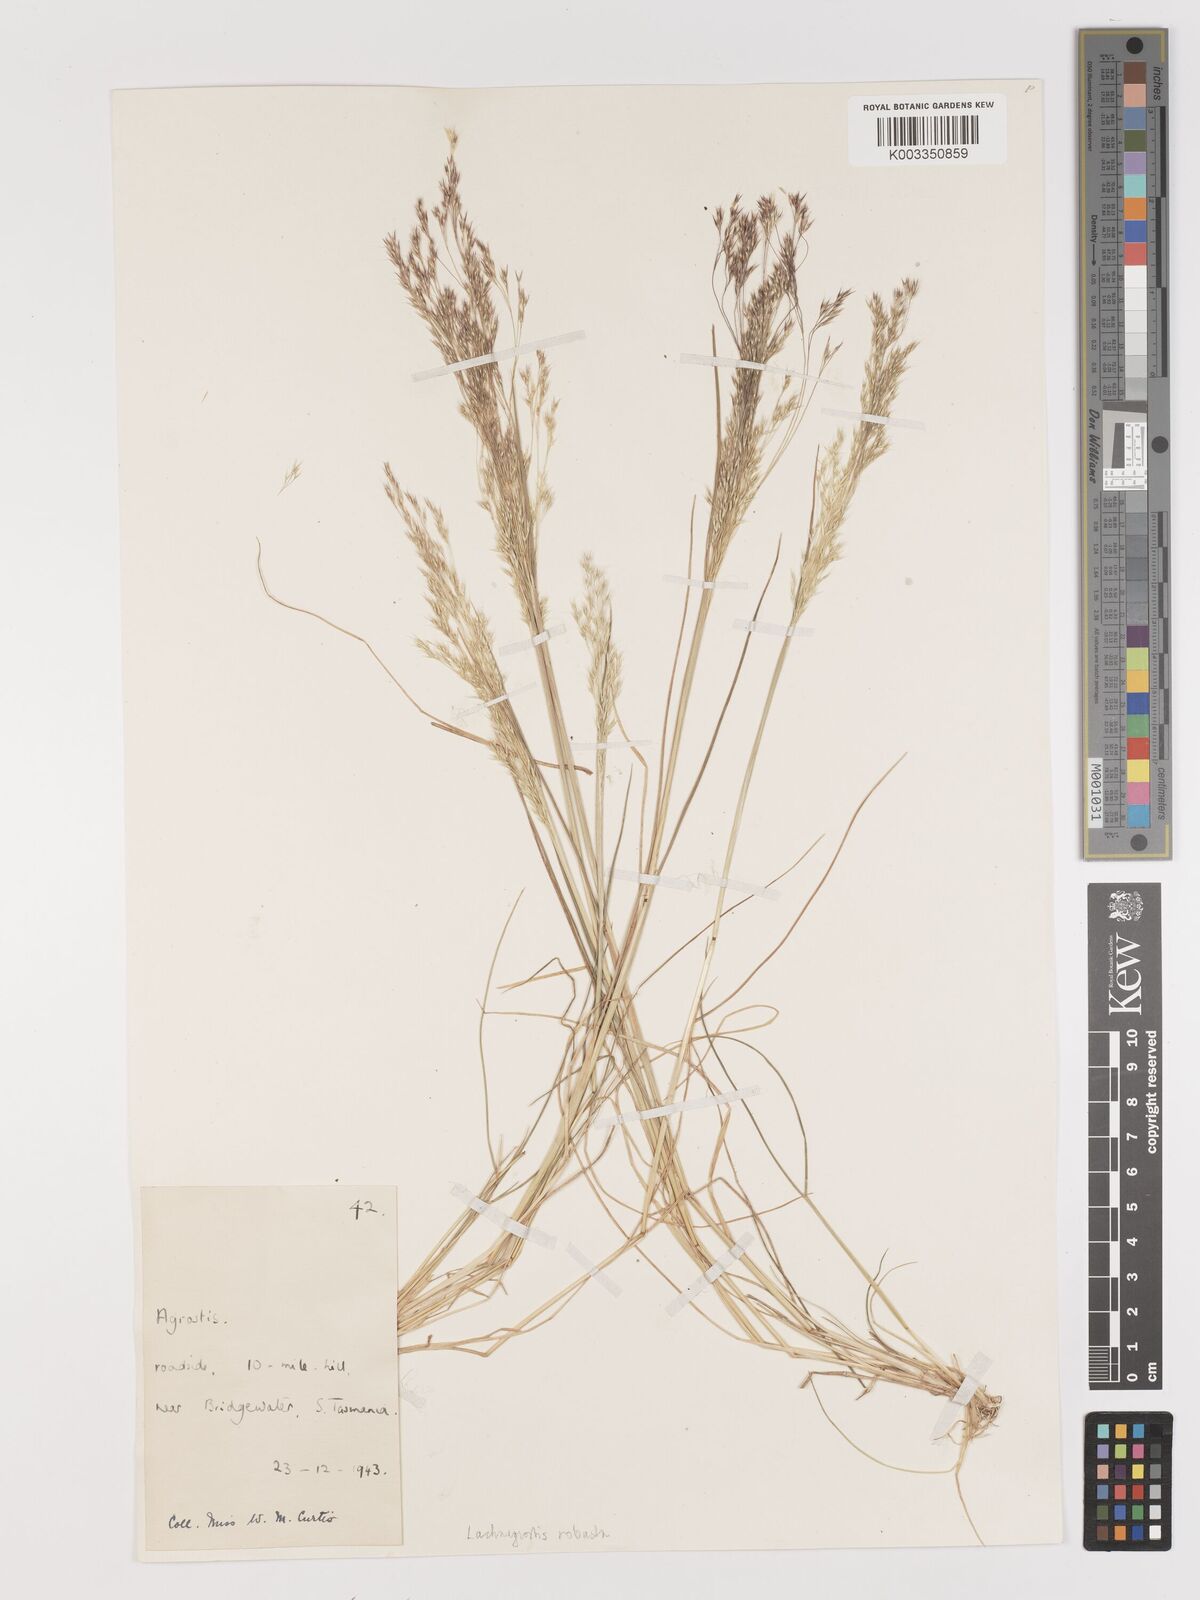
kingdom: Plantae
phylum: Tracheophyta
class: Liliopsida
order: Poales
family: Poaceae
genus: Lachnagrostis
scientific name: Lachnagrostis robusta
